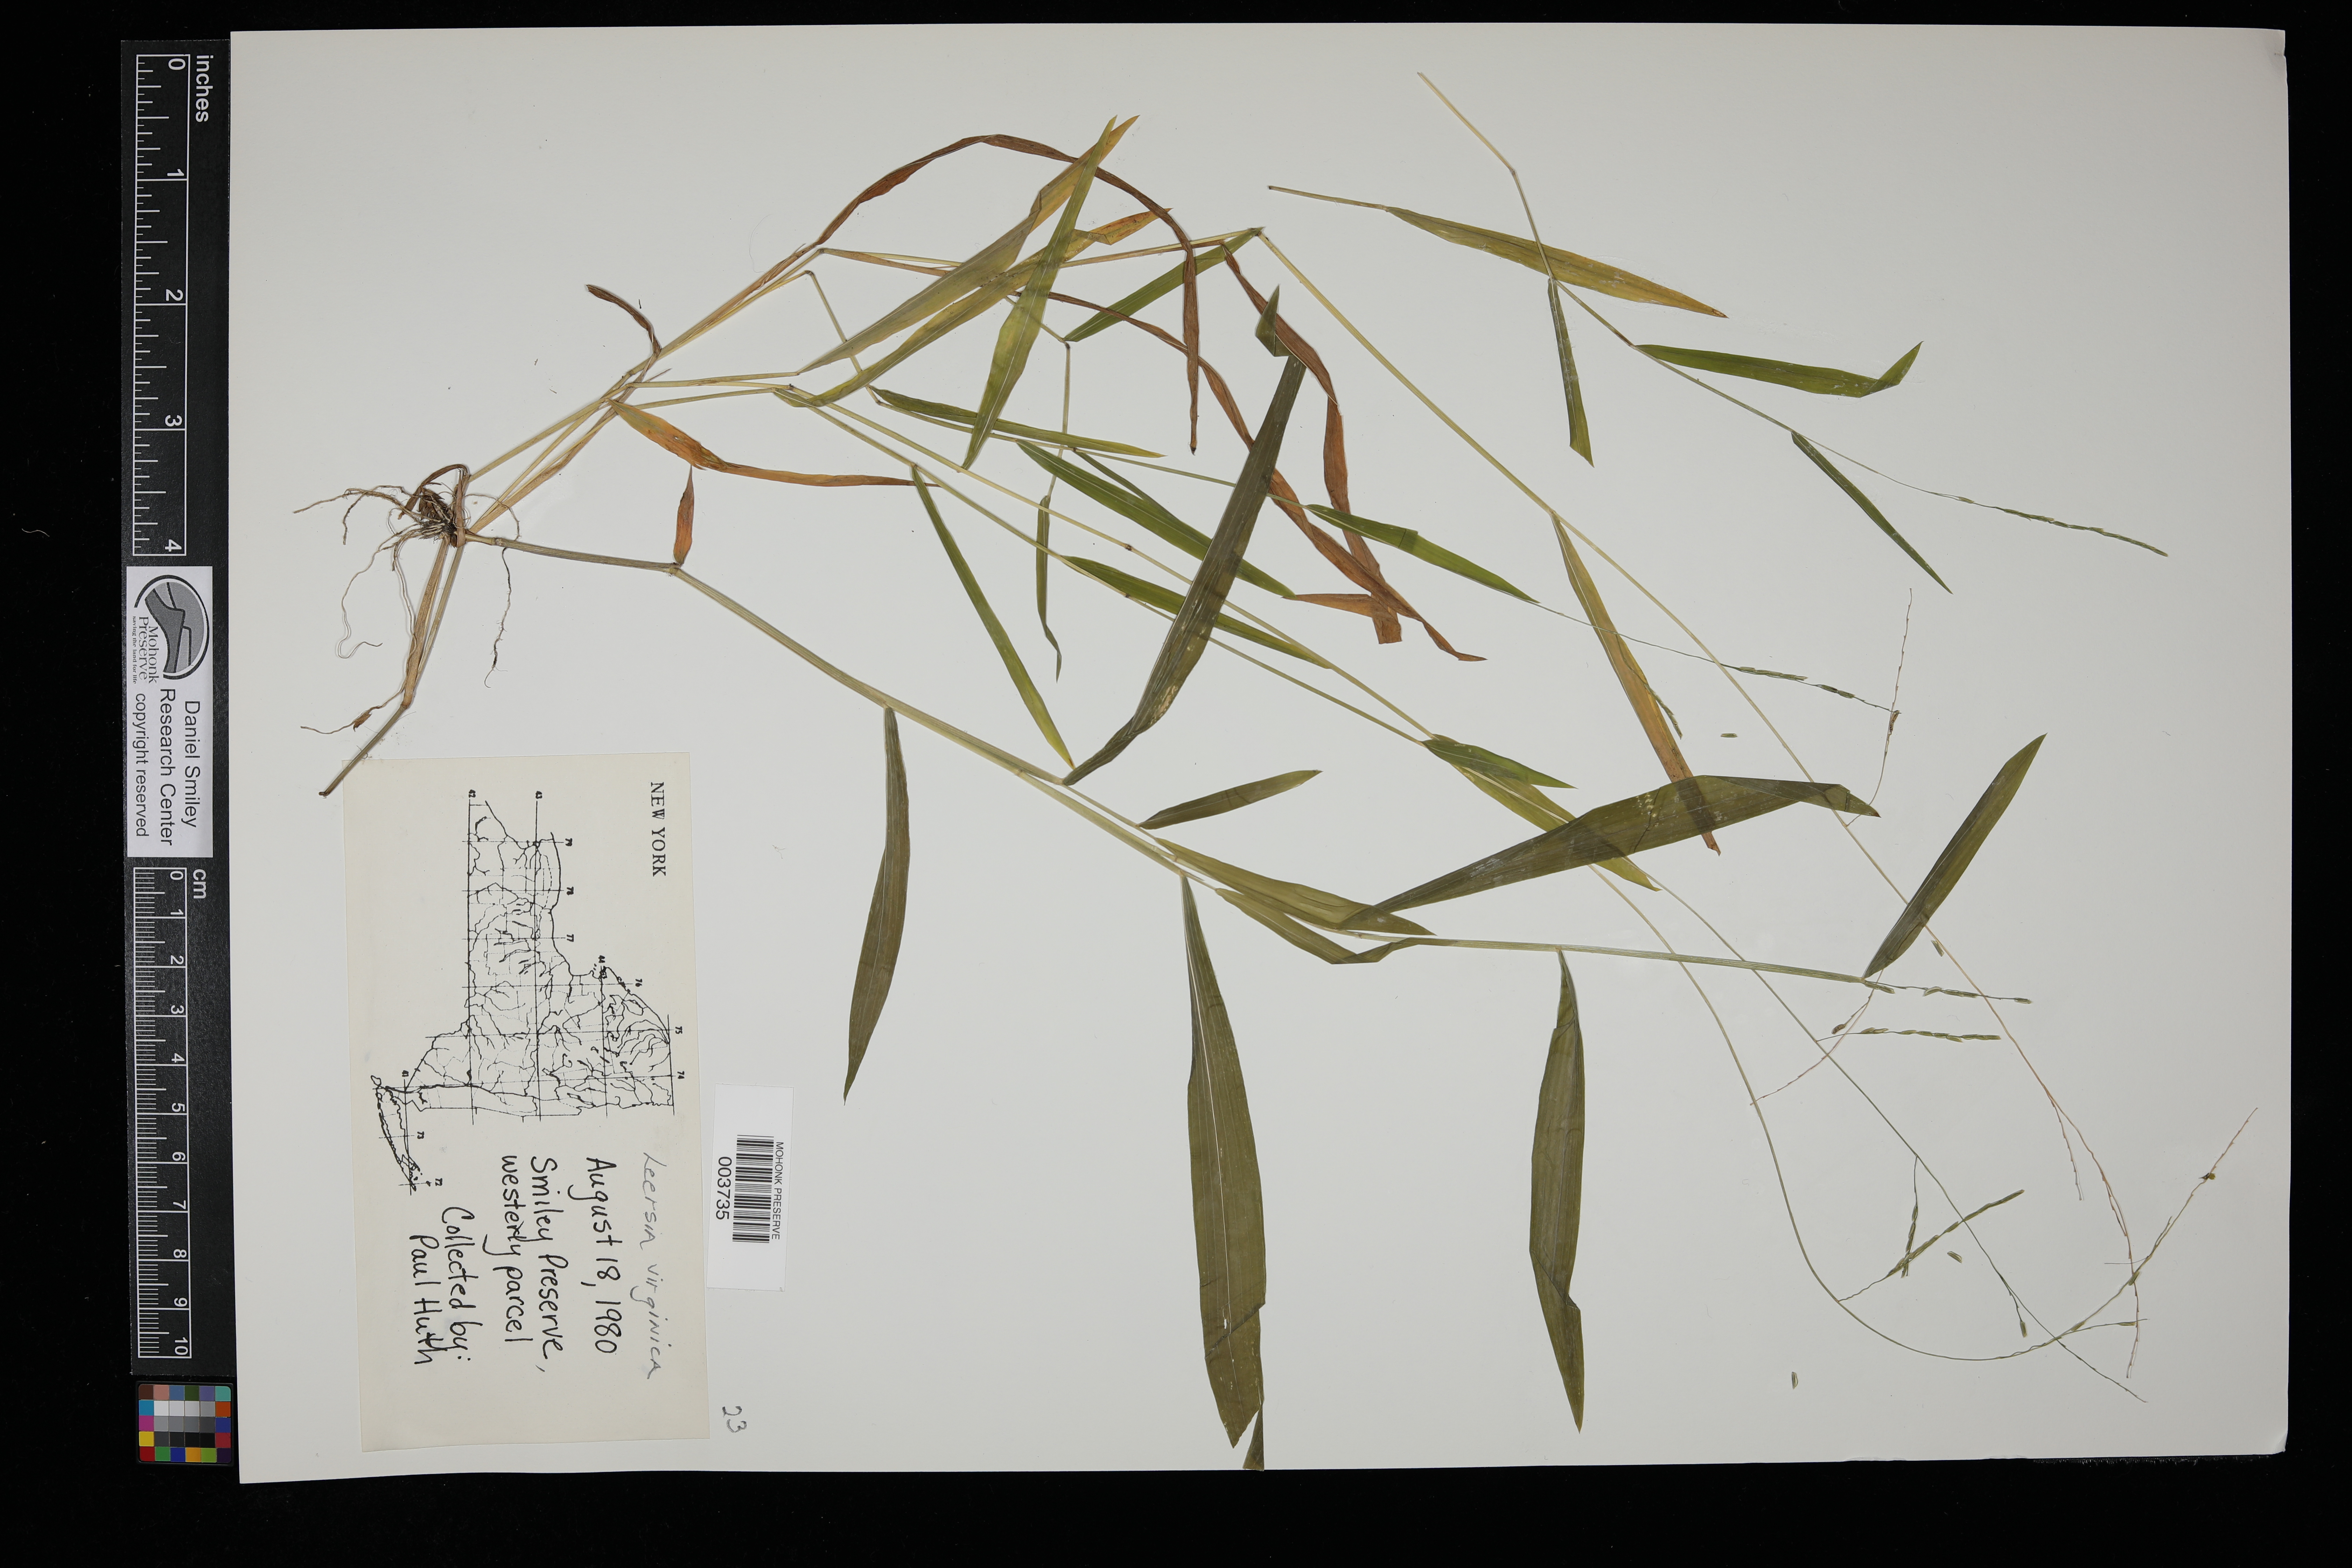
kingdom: Plantae
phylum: Tracheophyta
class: Liliopsida
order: Poales
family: Poaceae
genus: Leersia
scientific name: Leersia virginica
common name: White cutgrass
